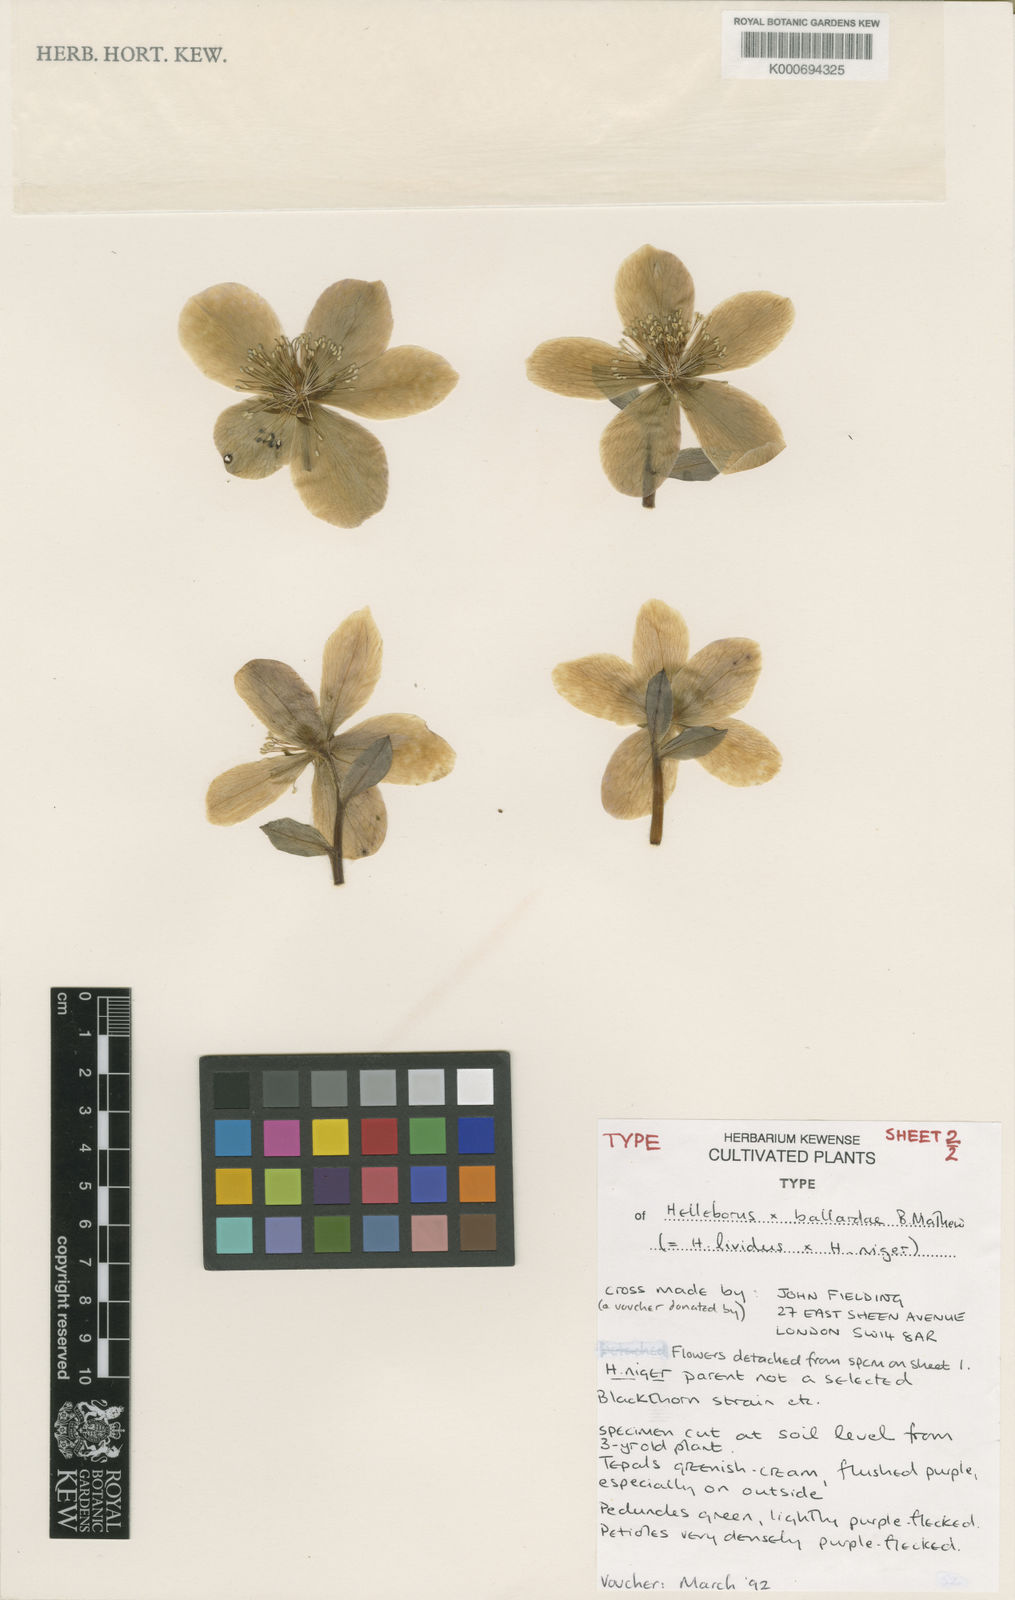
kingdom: Plantae
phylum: Tracheophyta
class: Magnoliopsida
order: Ranunculales
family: Ranunculaceae
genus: Helleborus
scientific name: Helleborus ballardiae
